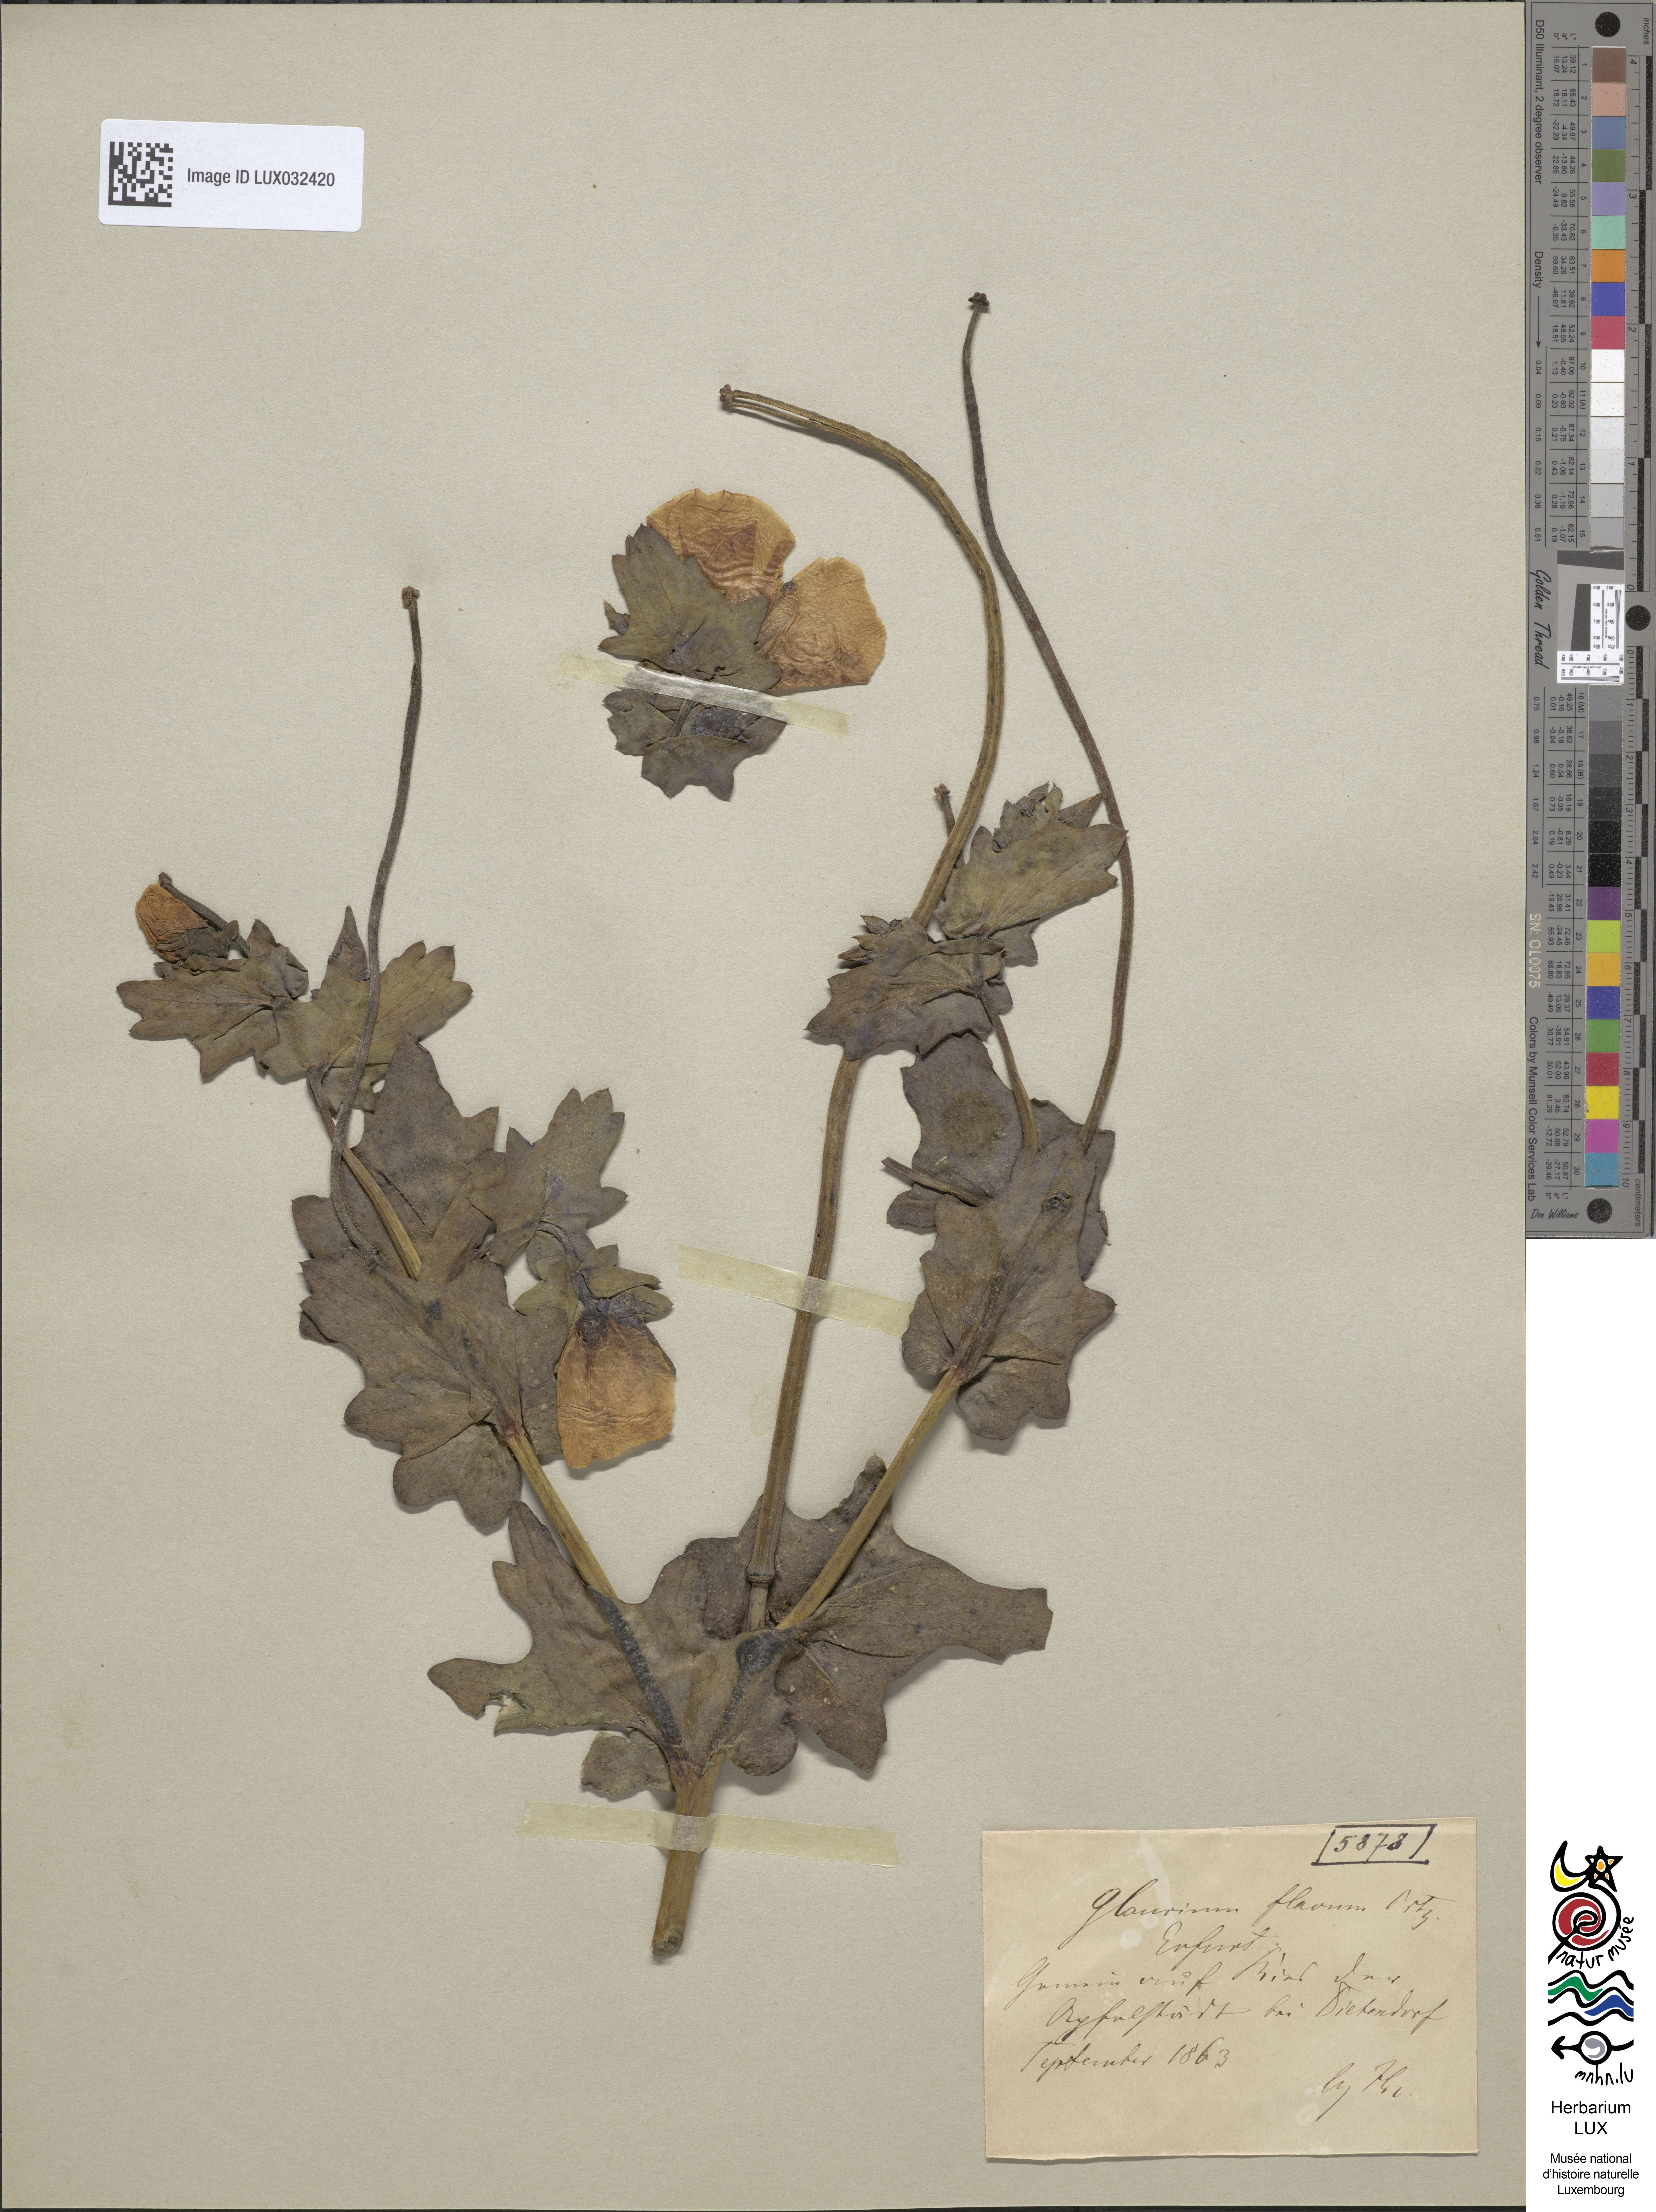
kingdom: Plantae
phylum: Tracheophyta
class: Magnoliopsida
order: Ranunculales
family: Papaveraceae
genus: Glaucium
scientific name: Glaucium flavum
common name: Yellow horned-poppy
